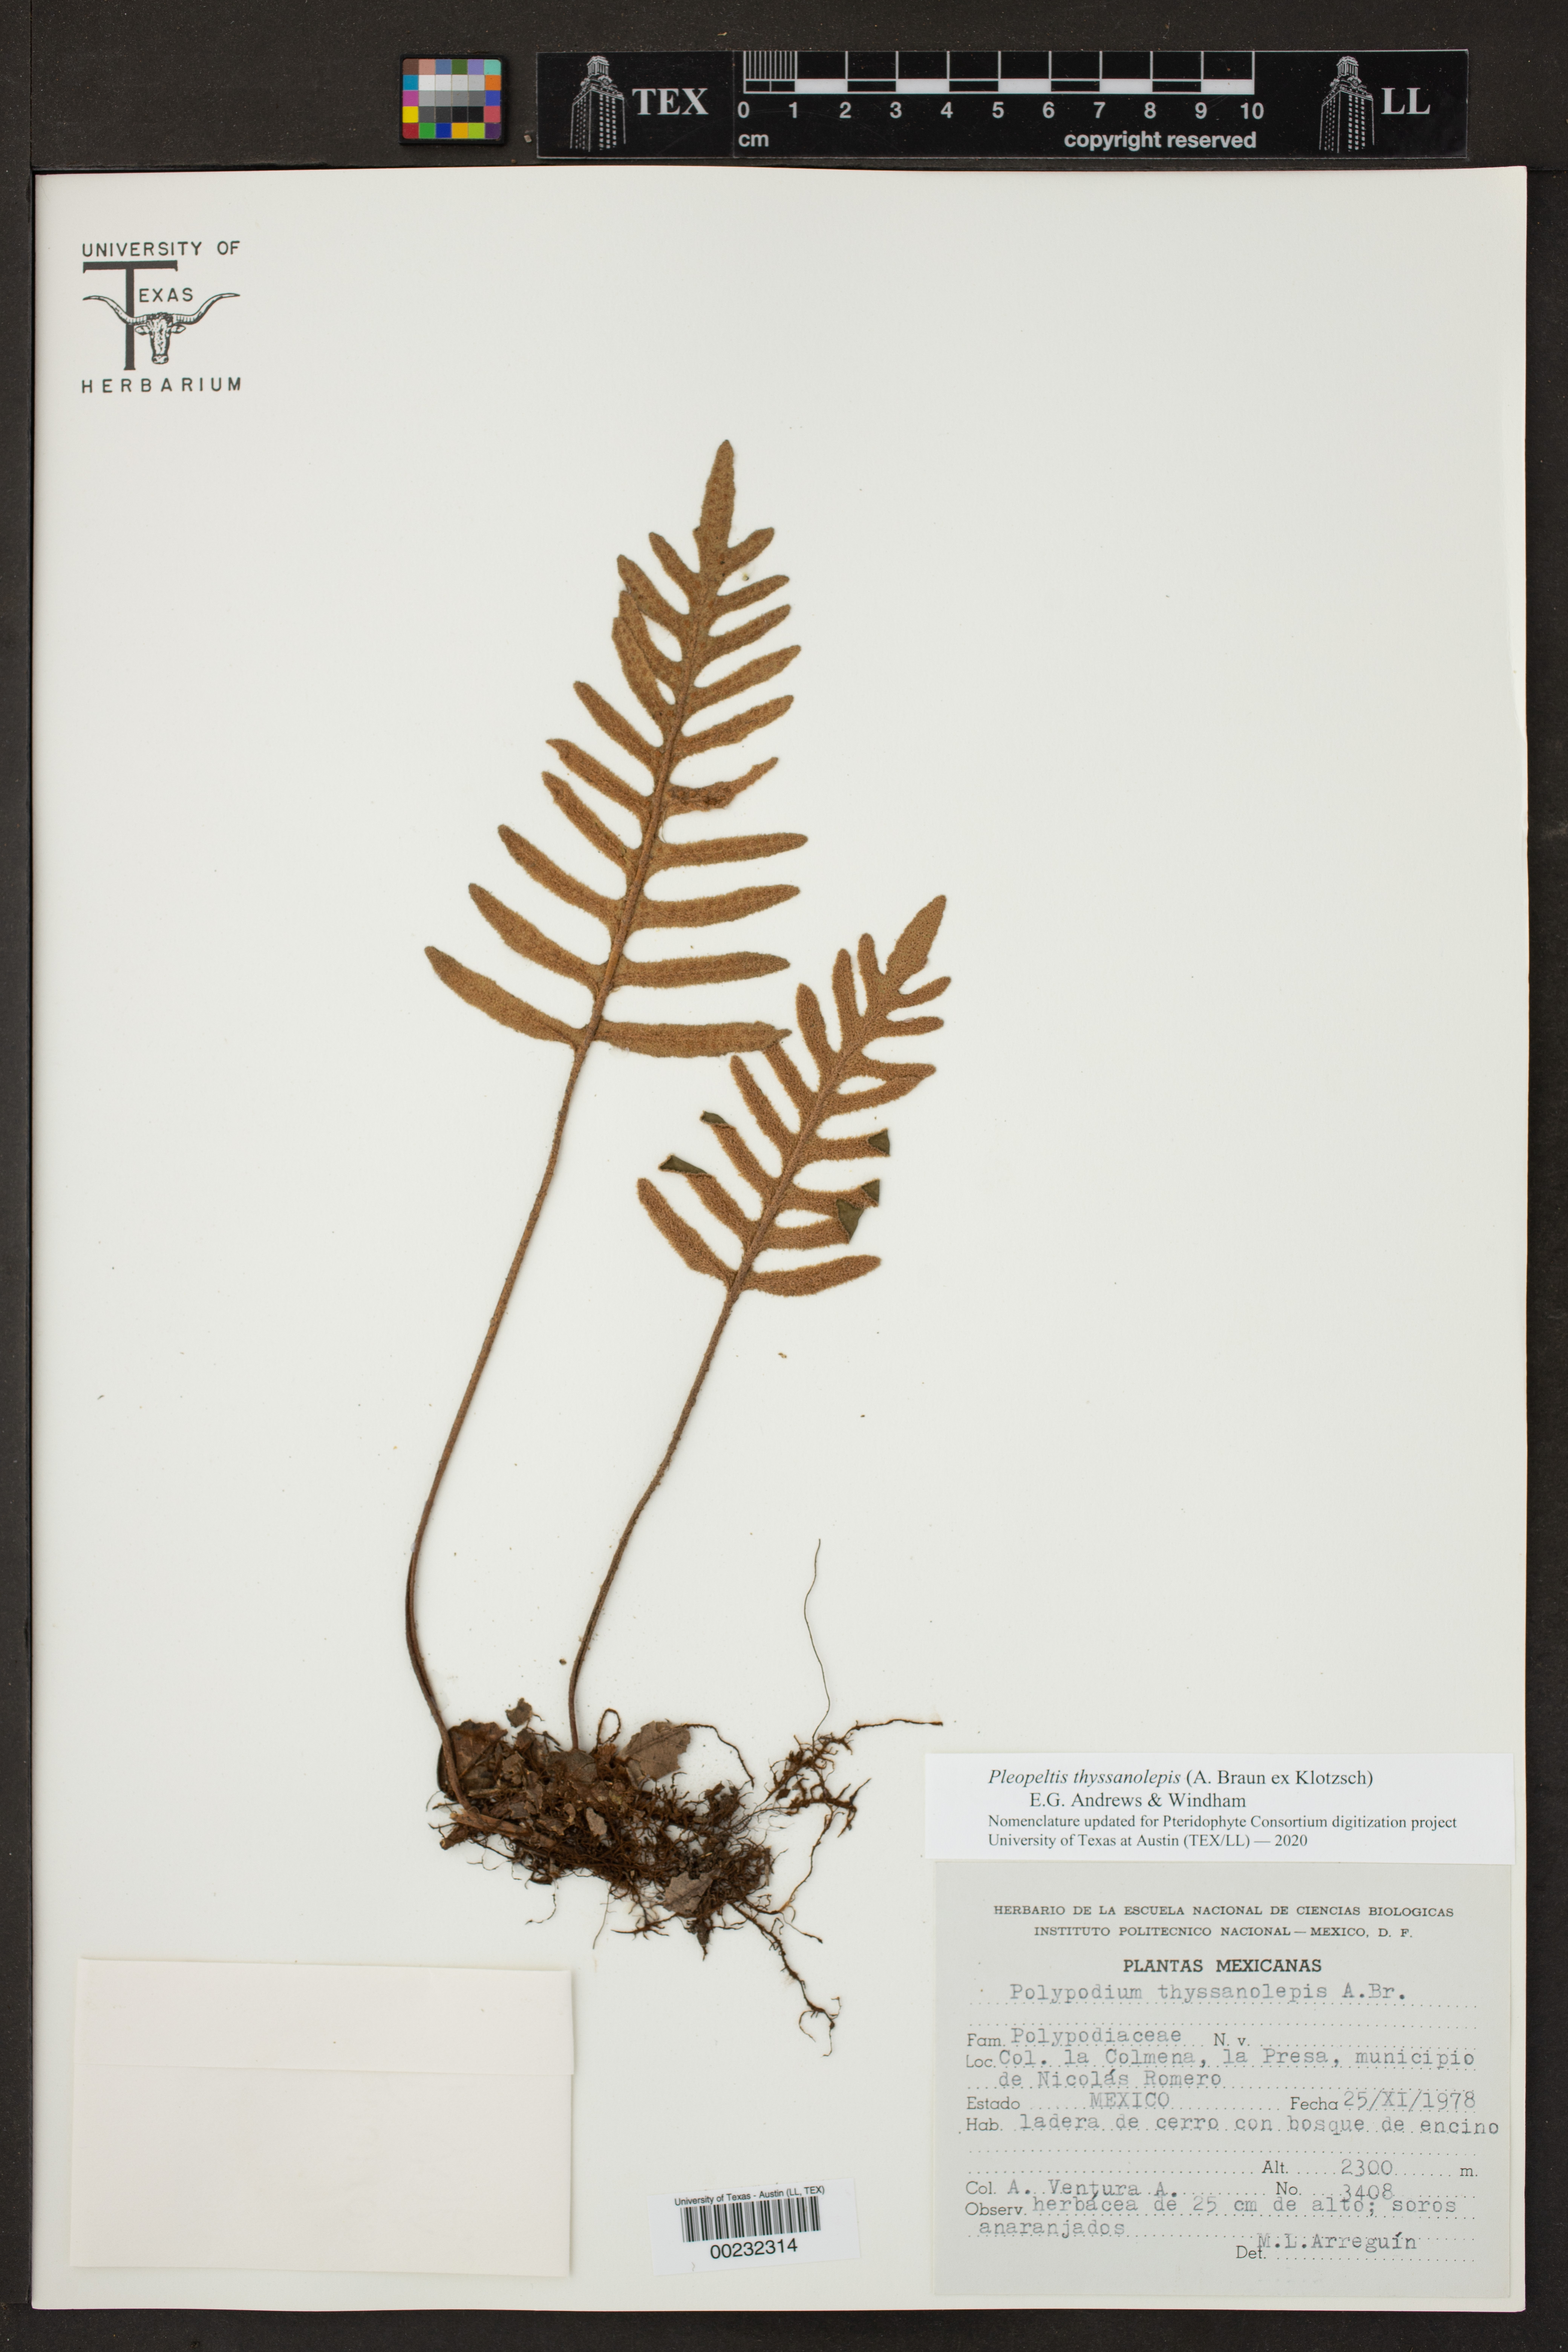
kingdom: Plantae
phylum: Tracheophyta
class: Polypodiopsida
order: Polypodiales
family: Polypodiaceae
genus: Pleopeltis
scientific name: Pleopeltis thyssanolepis
